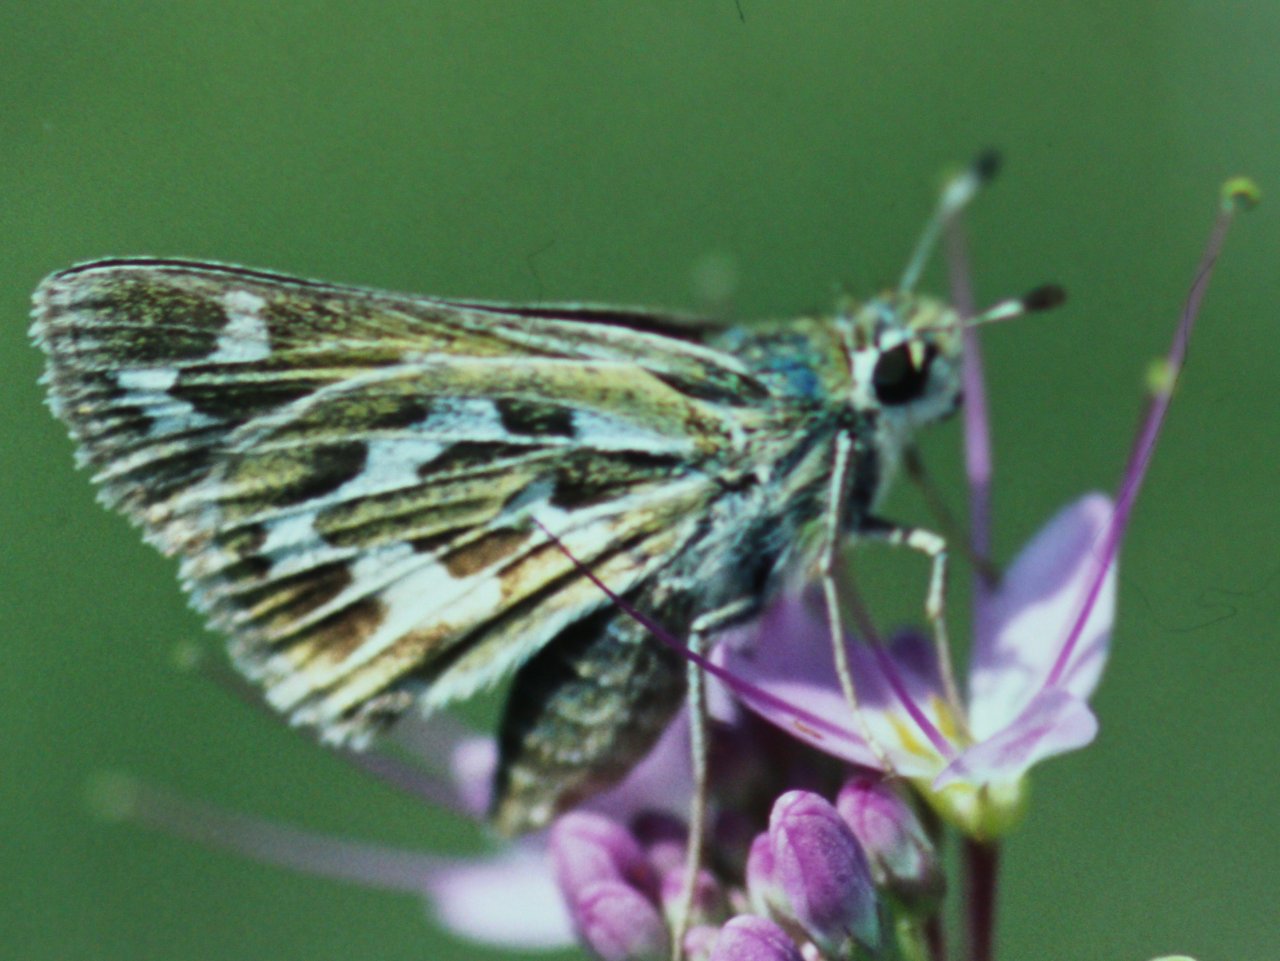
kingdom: Animalia
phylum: Arthropoda
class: Insecta
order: Lepidoptera
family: Hesperiidae
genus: Hesperia
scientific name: Hesperia uncas
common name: Uncas Skipper
